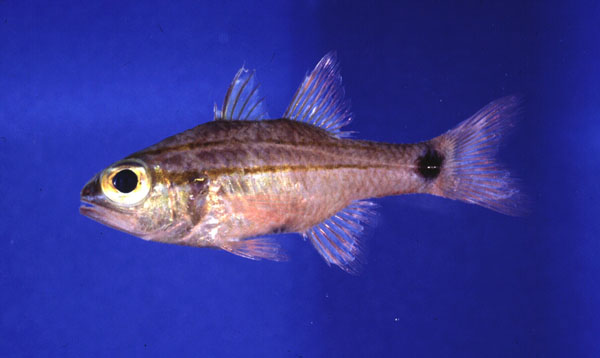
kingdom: Animalia
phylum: Chordata
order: Perciformes
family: Apogonidae
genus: Ostorhinchus
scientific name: Ostorhinchus fukuii
